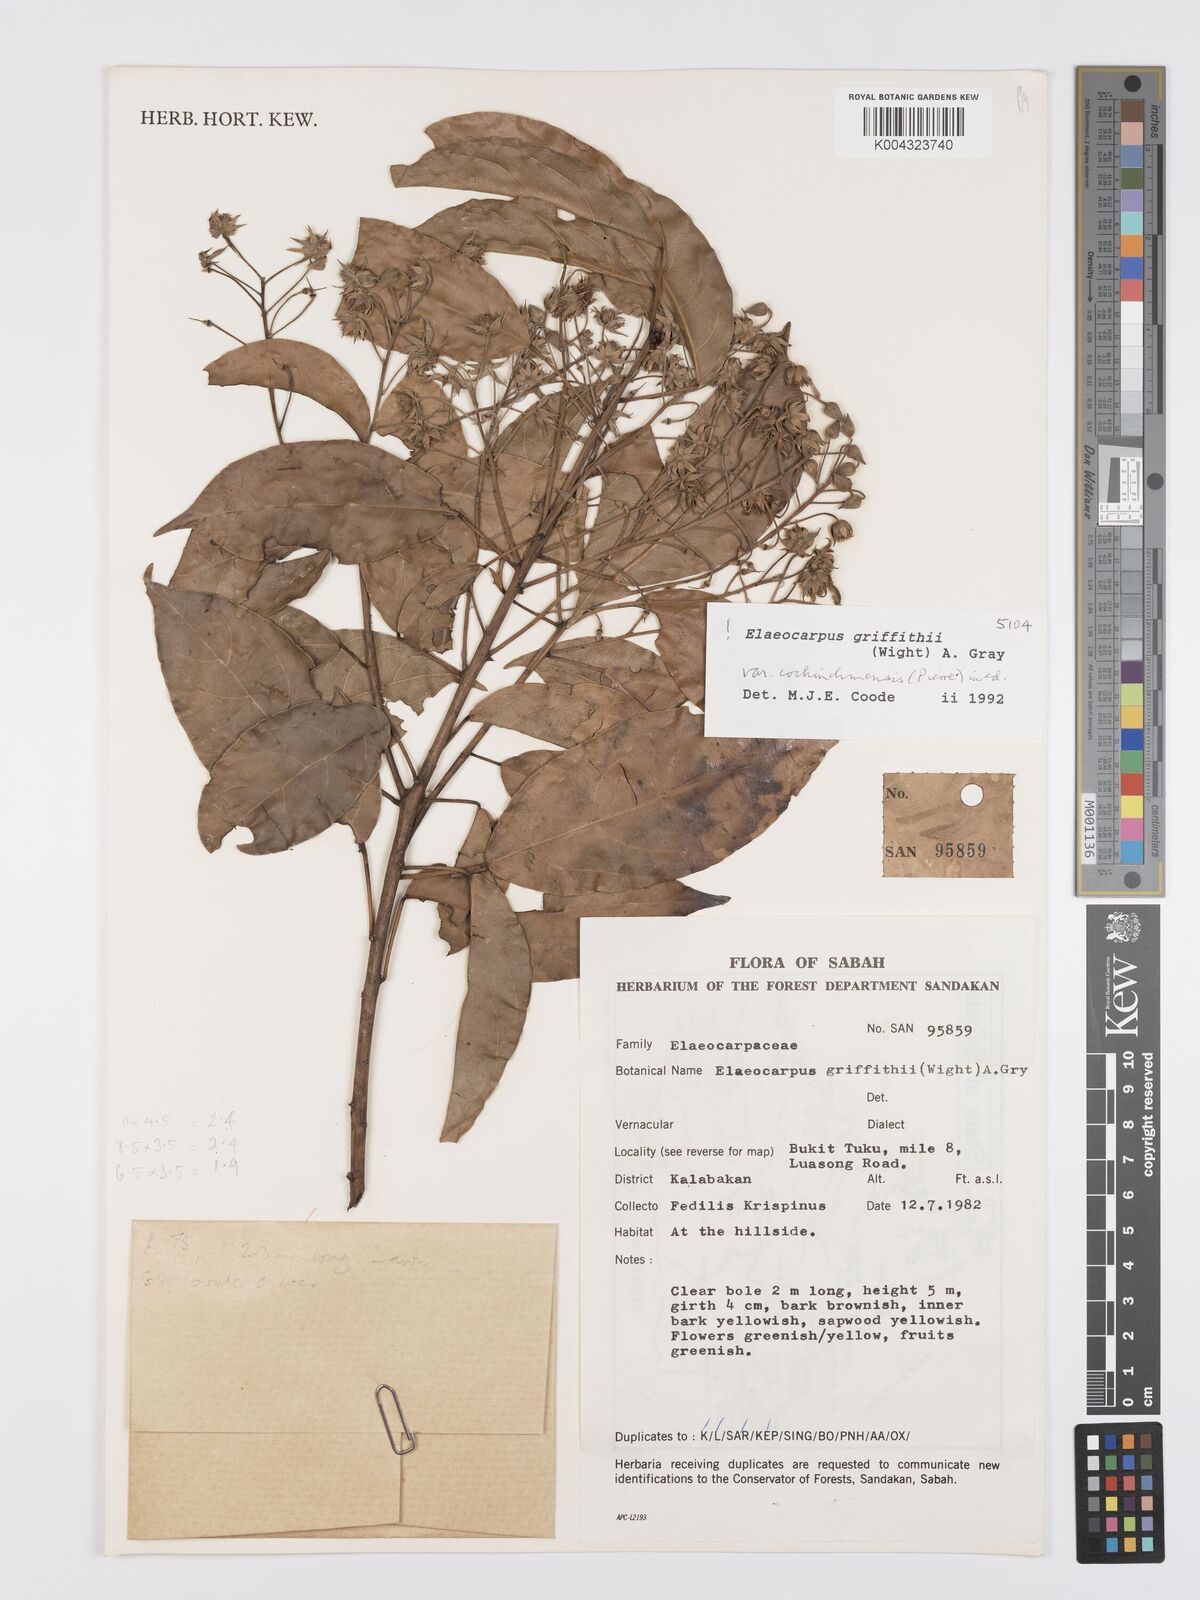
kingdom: Plantae
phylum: Tracheophyta
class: Magnoliopsida
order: Oxalidales
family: Elaeocarpaceae
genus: Elaeocarpus
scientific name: Elaeocarpus griffithii
